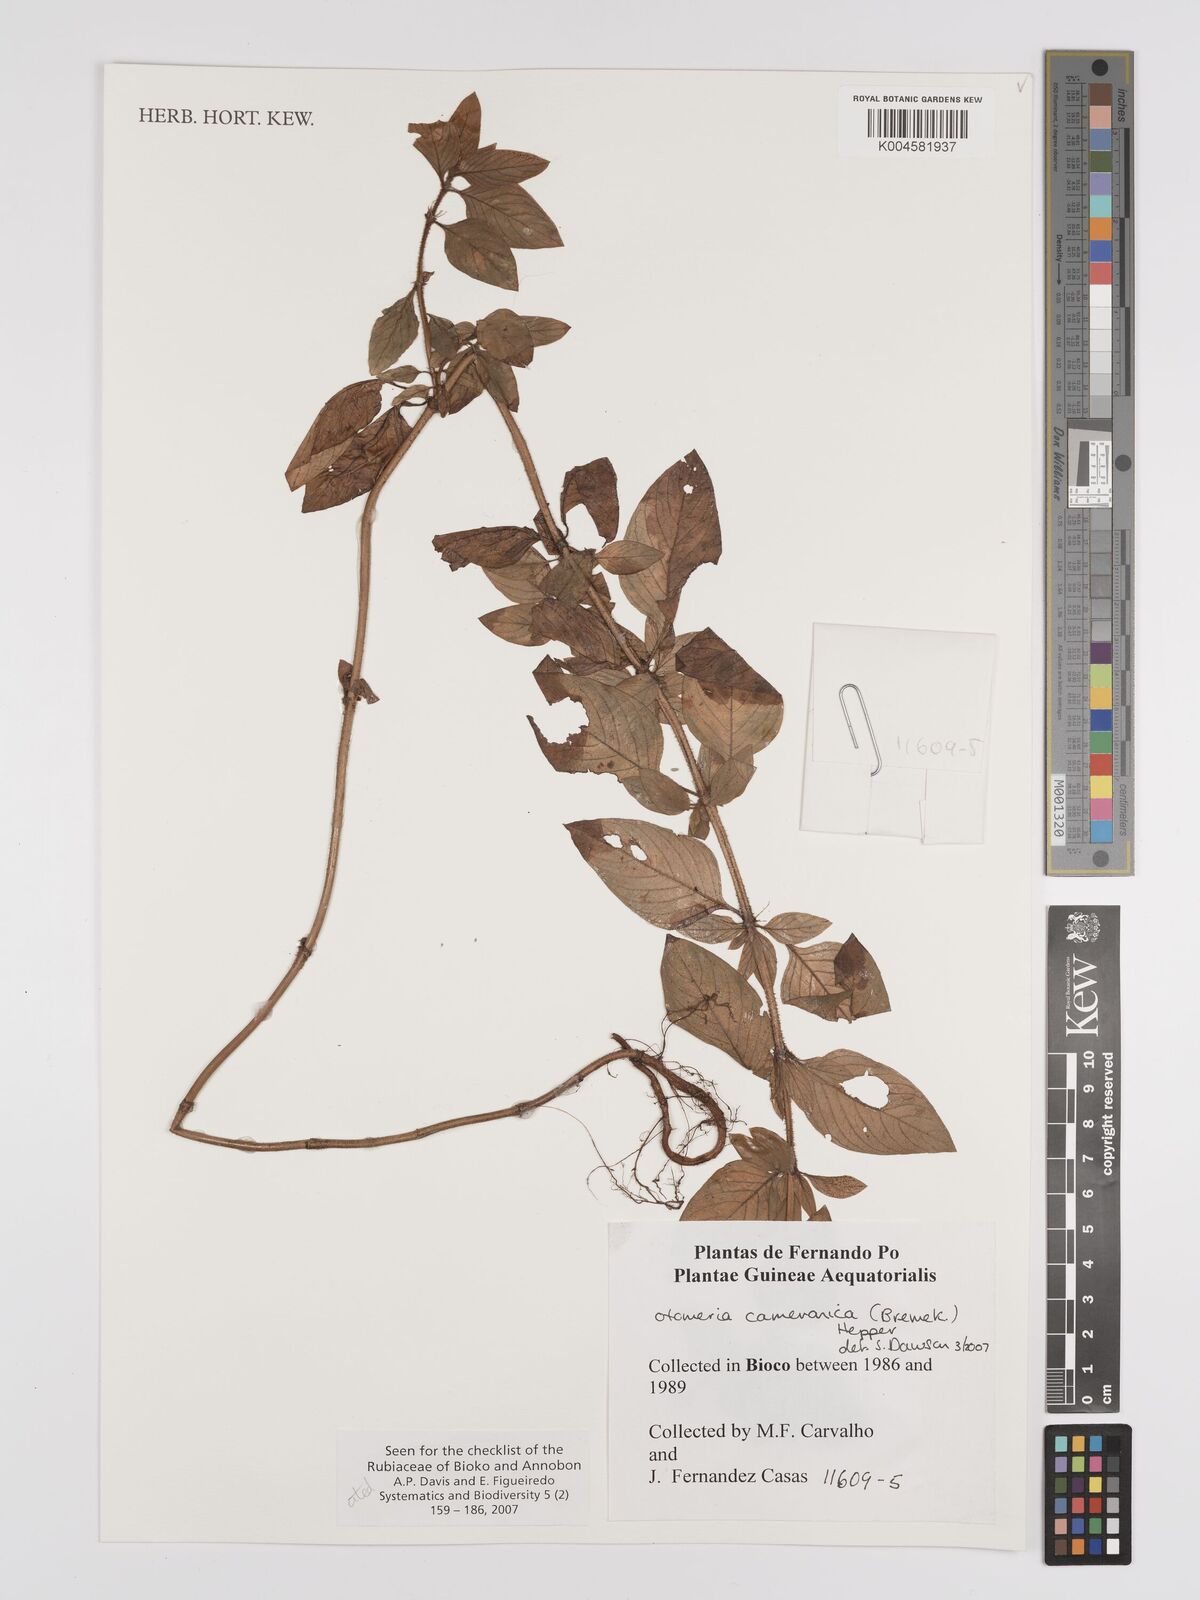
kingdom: Plantae
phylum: Tracheophyta
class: Magnoliopsida
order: Gentianales
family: Rubiaceae
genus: Otomeria
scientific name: Otomeria cameronica
